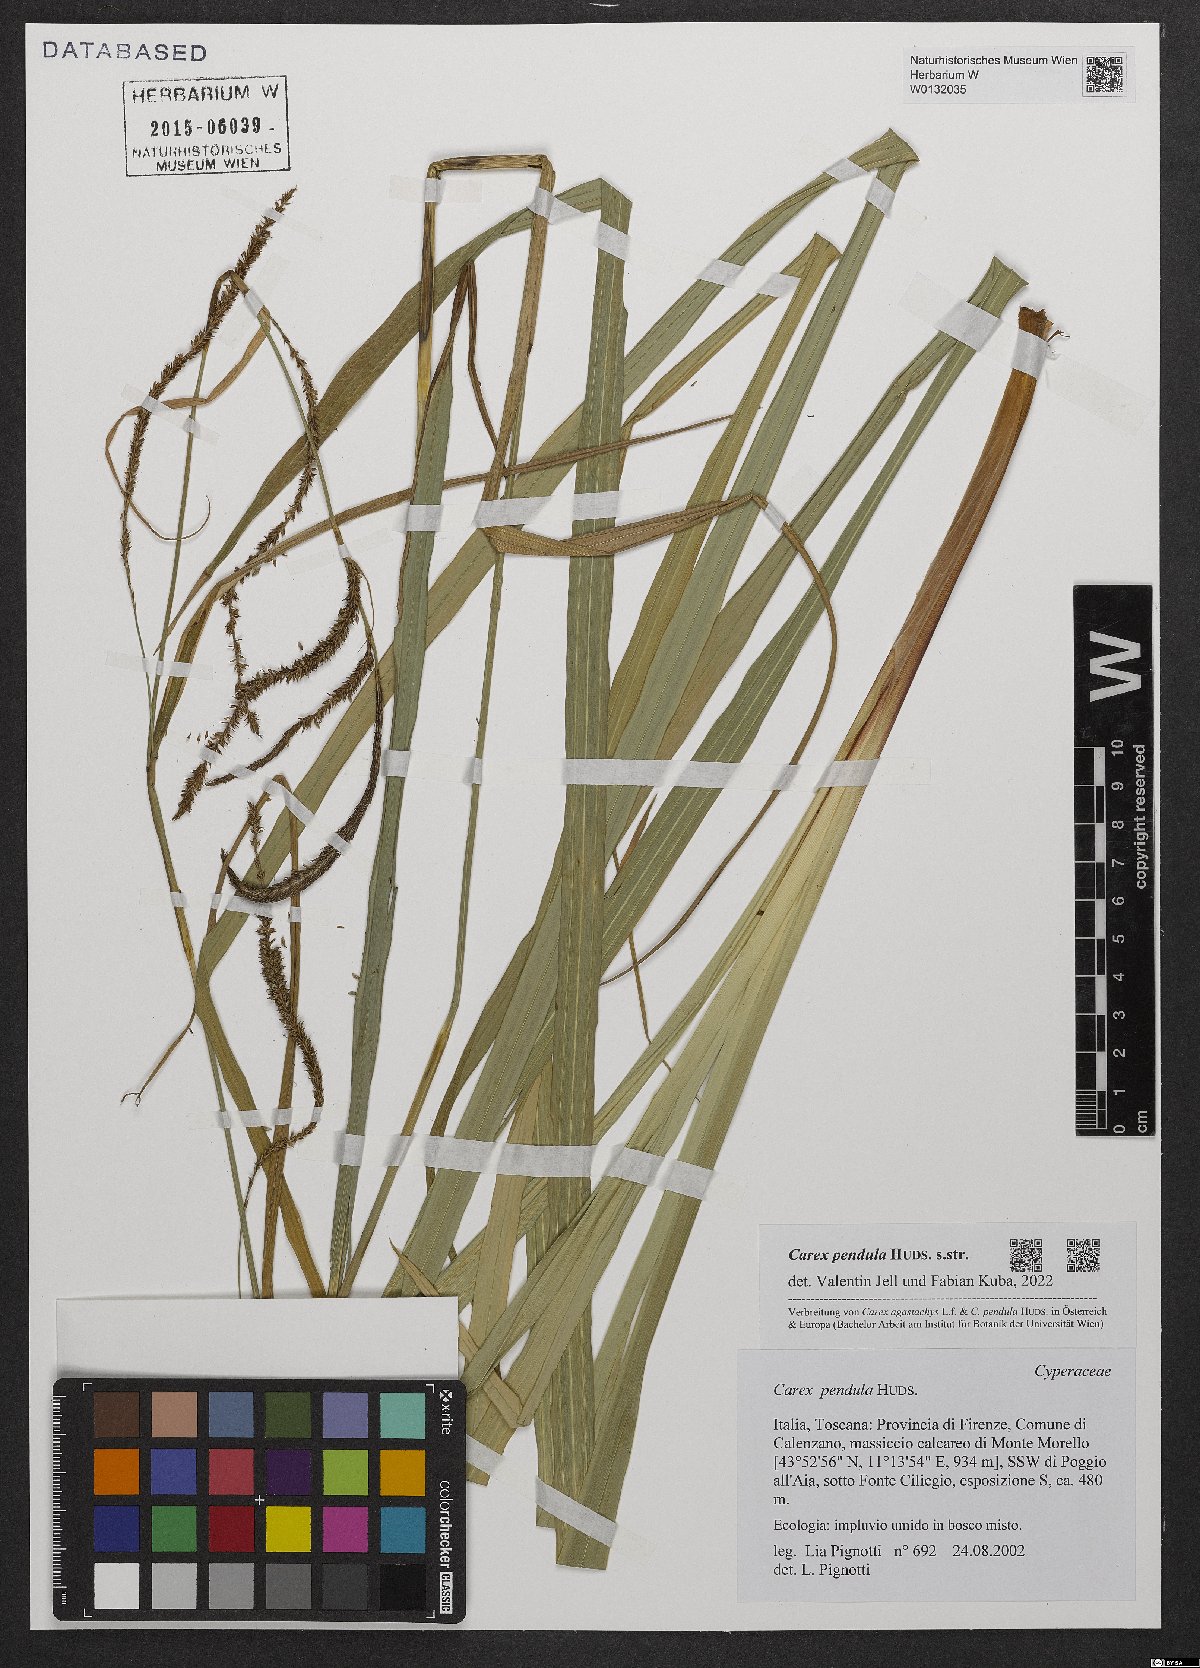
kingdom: Plantae
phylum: Tracheophyta
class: Liliopsida
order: Poales
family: Cyperaceae
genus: Carex
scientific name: Carex pendula
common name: Pendulous sedge
